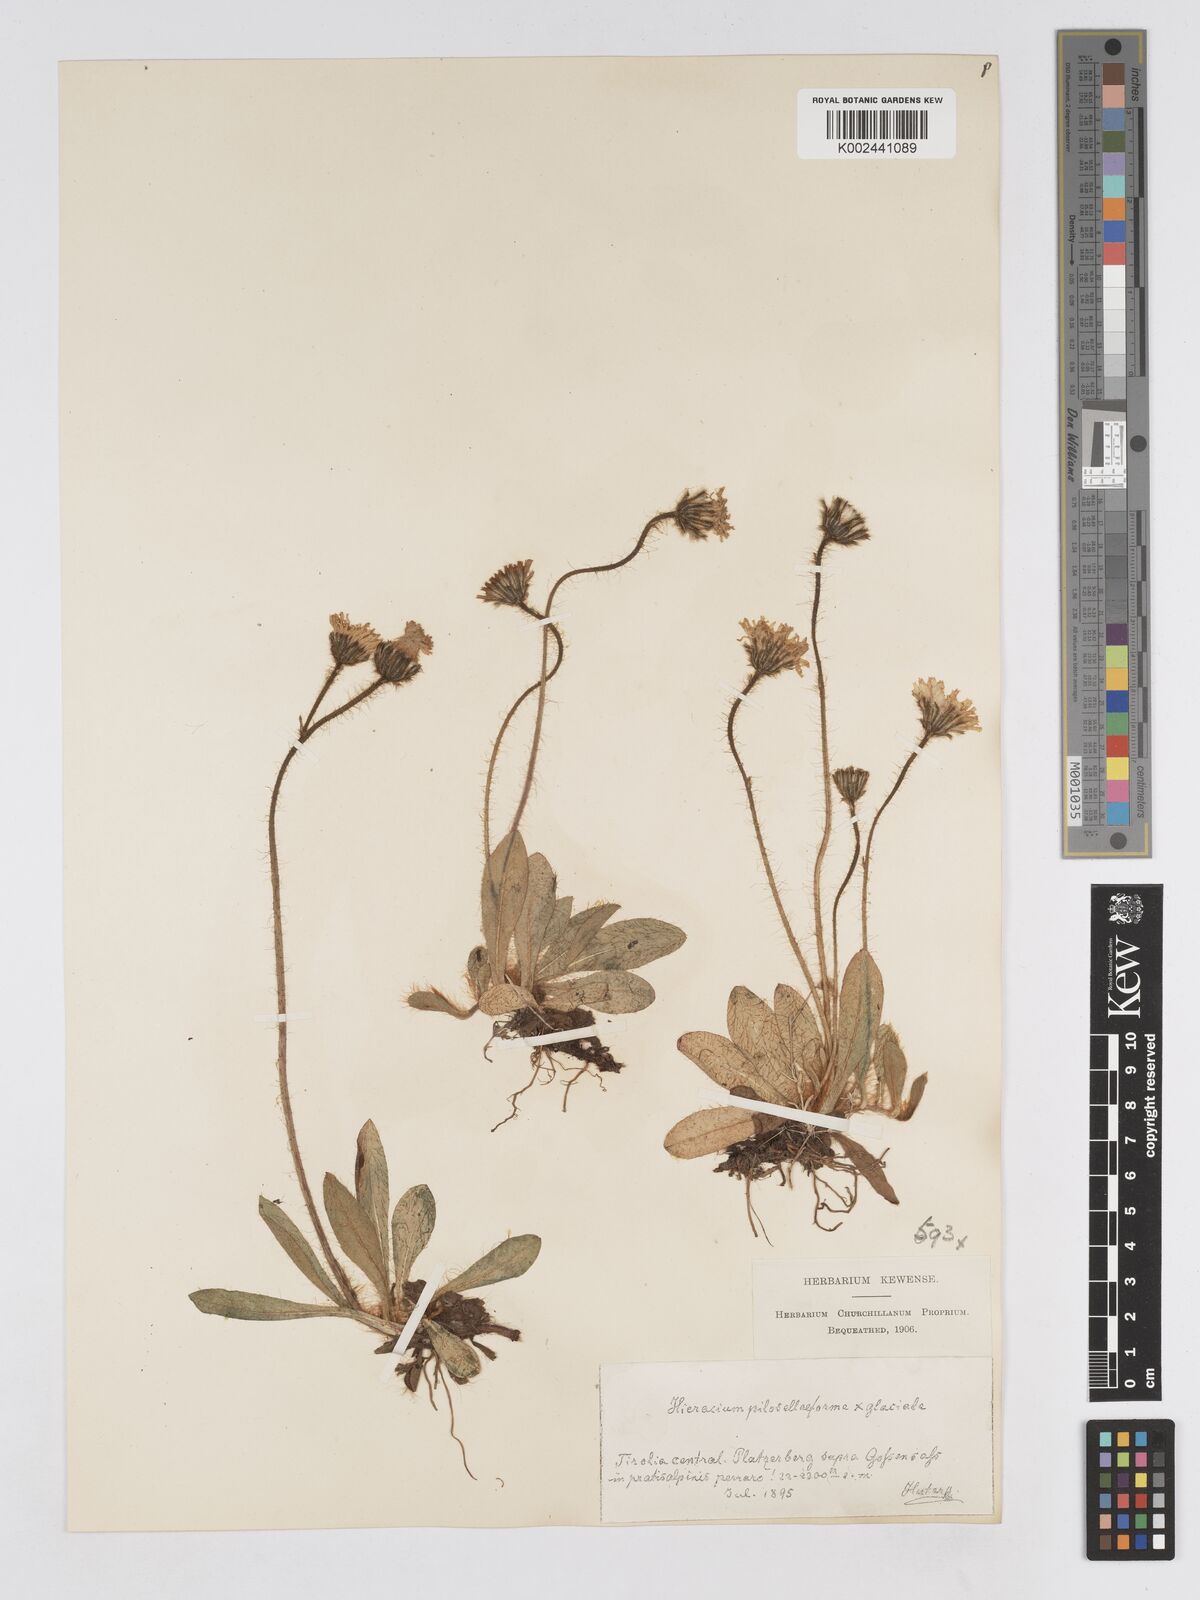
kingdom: Plantae
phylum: Tracheophyta
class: Magnoliopsida
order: Asterales
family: Asteraceae
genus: Pilosella
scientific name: Pilosella sphaerocephala
